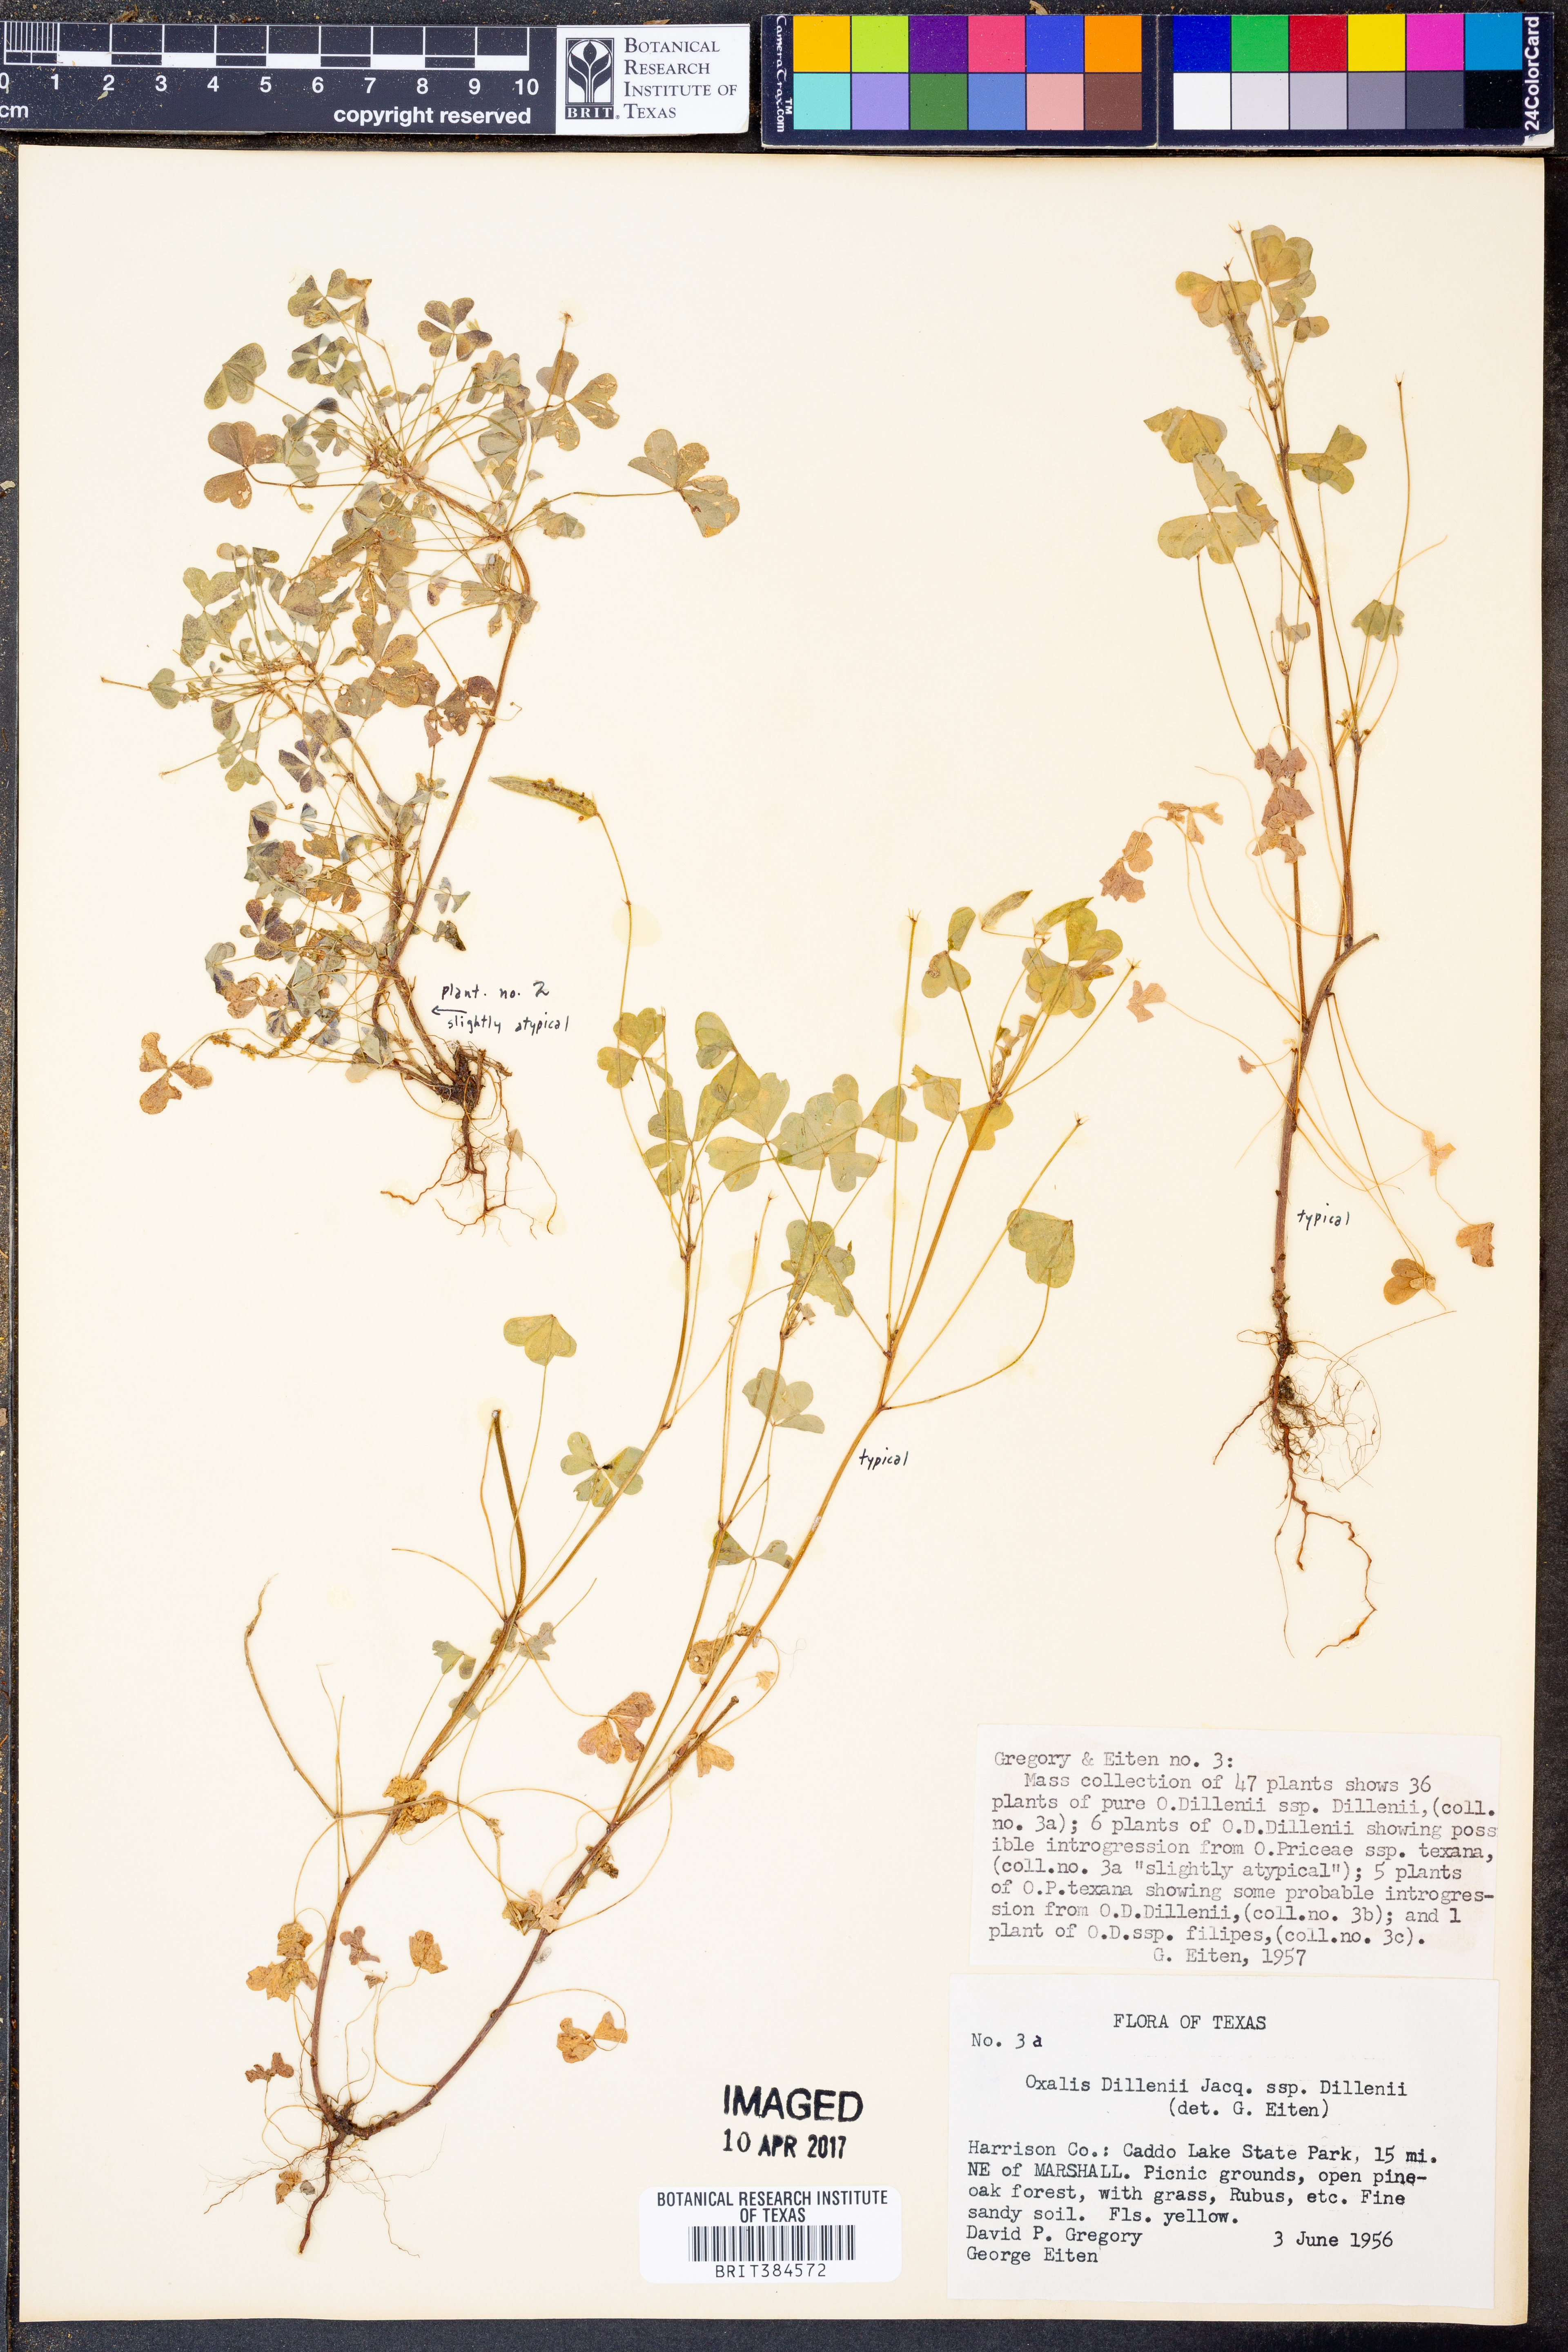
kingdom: Plantae
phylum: Tracheophyta
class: Magnoliopsida
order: Oxalidales
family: Oxalidaceae
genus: Oxalis
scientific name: Oxalis dillenii
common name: Sussex yellow-sorrel
